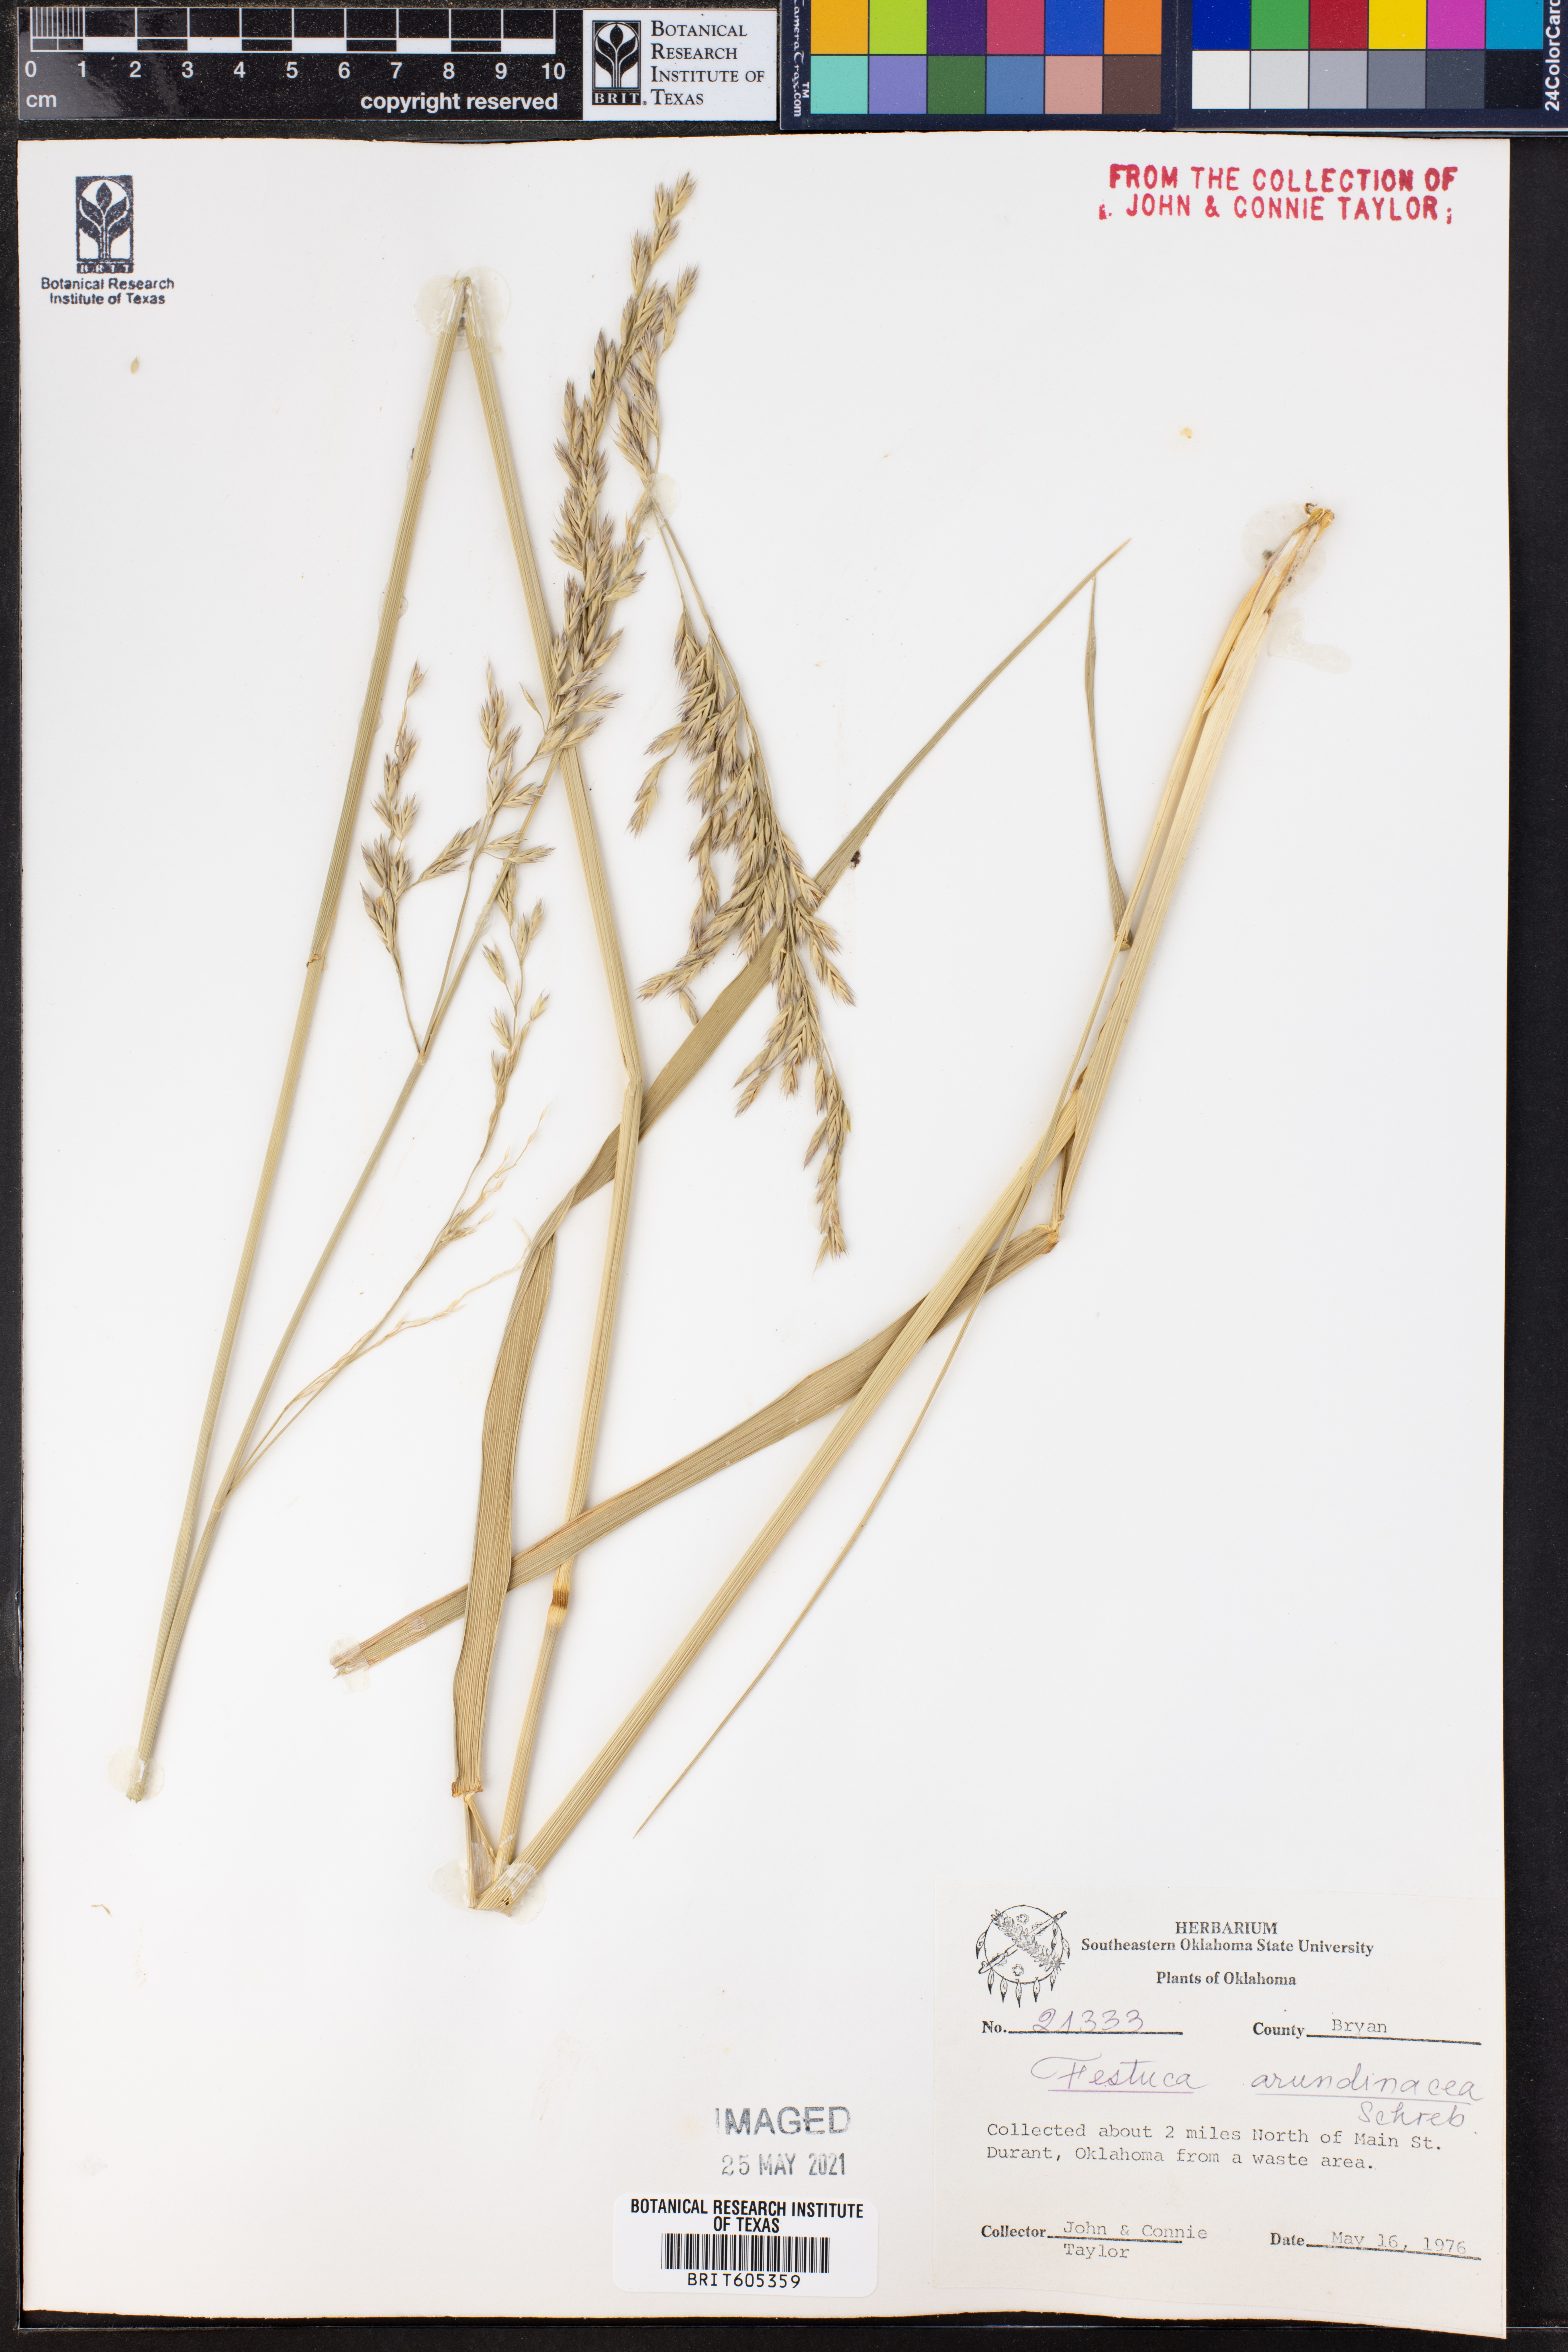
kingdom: Plantae
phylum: Tracheophyta
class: Liliopsida
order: Poales
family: Poaceae
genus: Lolium
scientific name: Lolium arundinaceum
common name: Reed fescue
